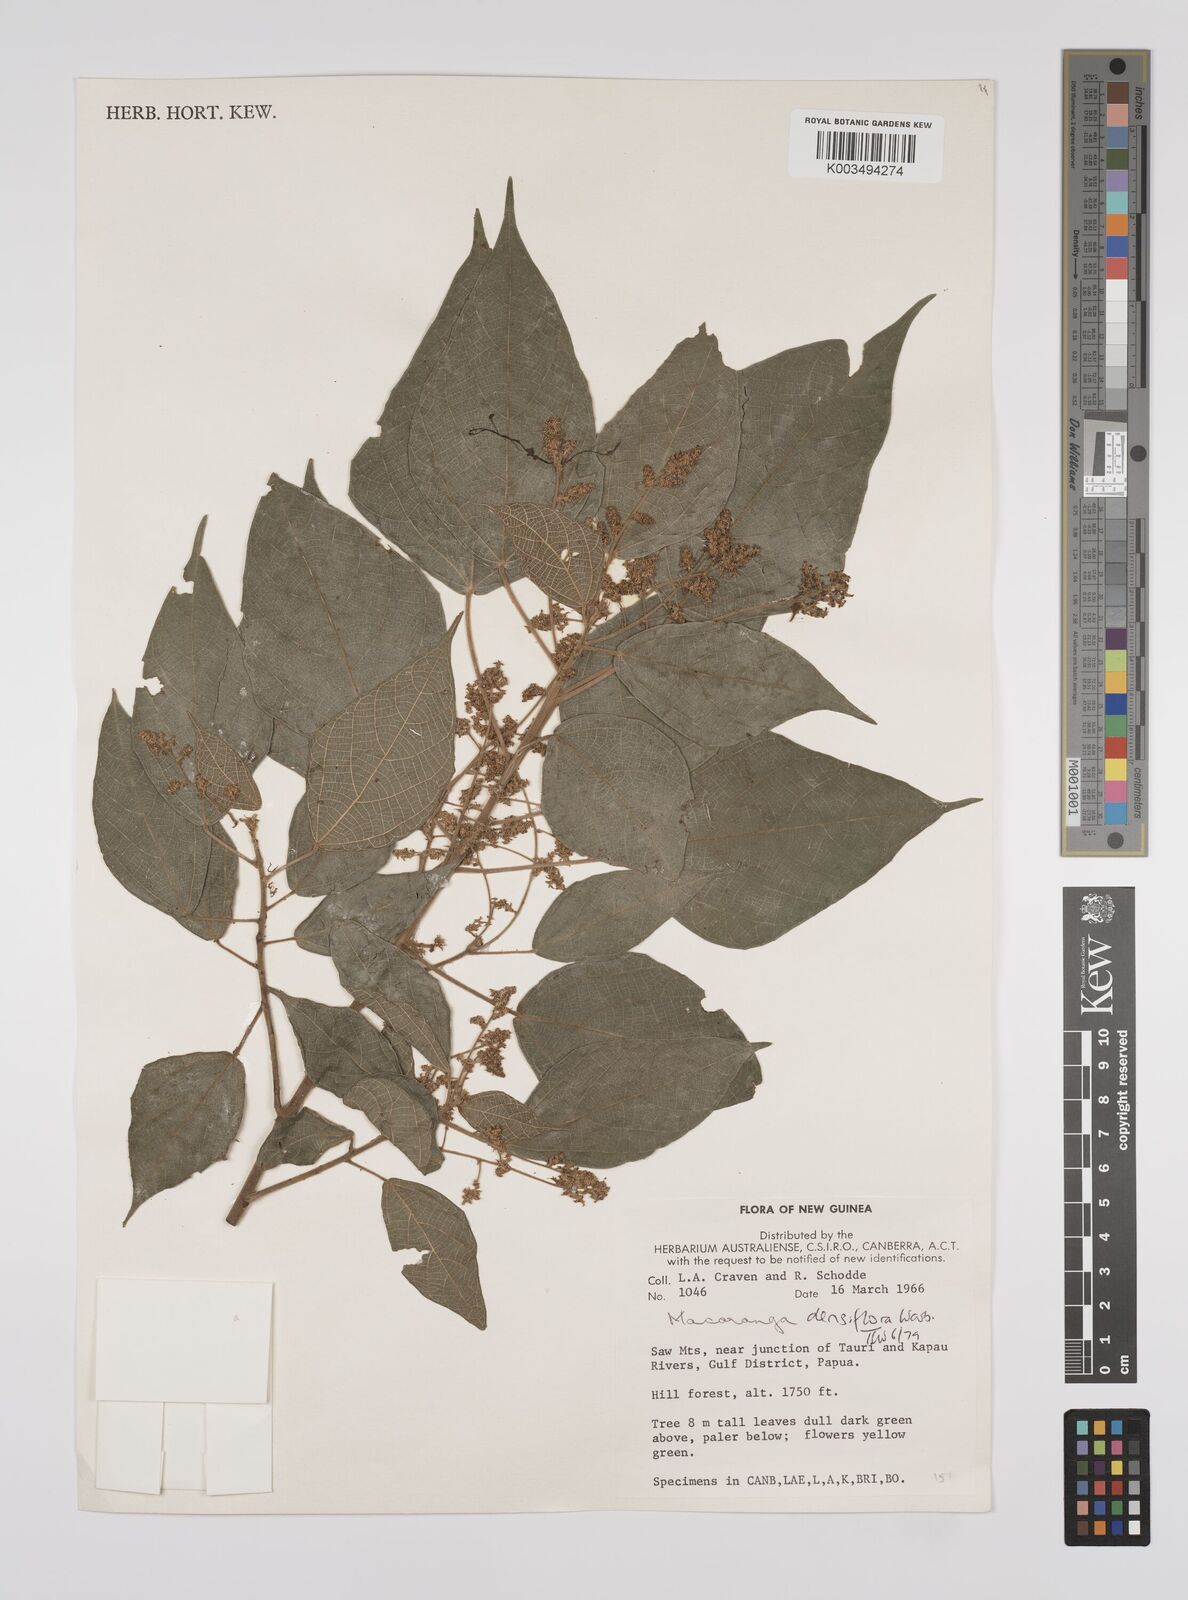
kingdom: Plantae
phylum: Tracheophyta
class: Magnoliopsida
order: Malpighiales
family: Euphorbiaceae
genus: Macaranga
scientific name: Macaranga densiflora
